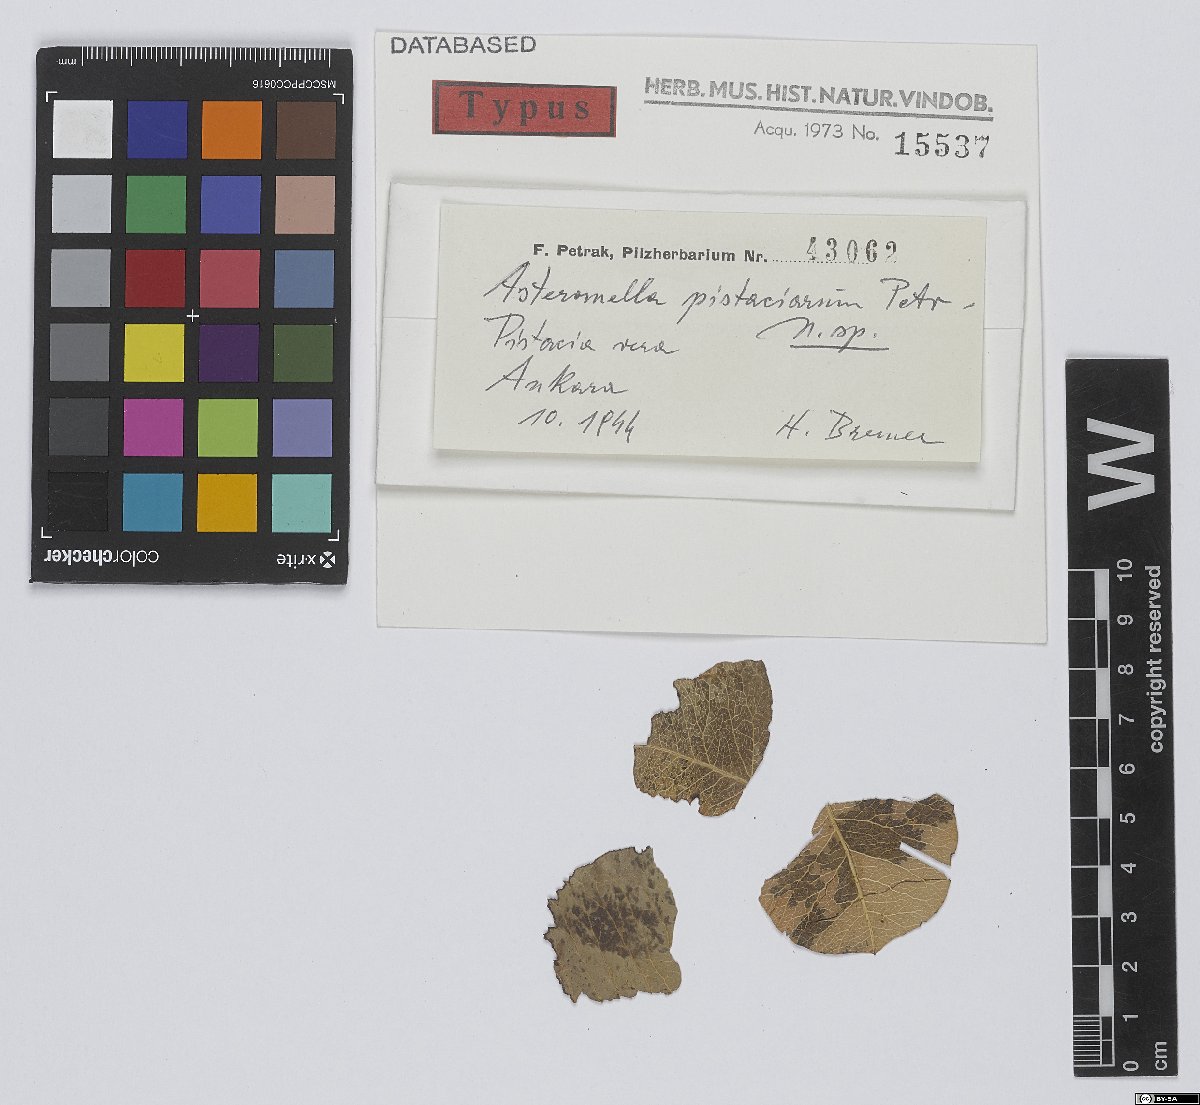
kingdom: Fungi
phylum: Ascomycota
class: Dothideomycetes
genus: Asteromella
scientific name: Asteromella pistaciarum
